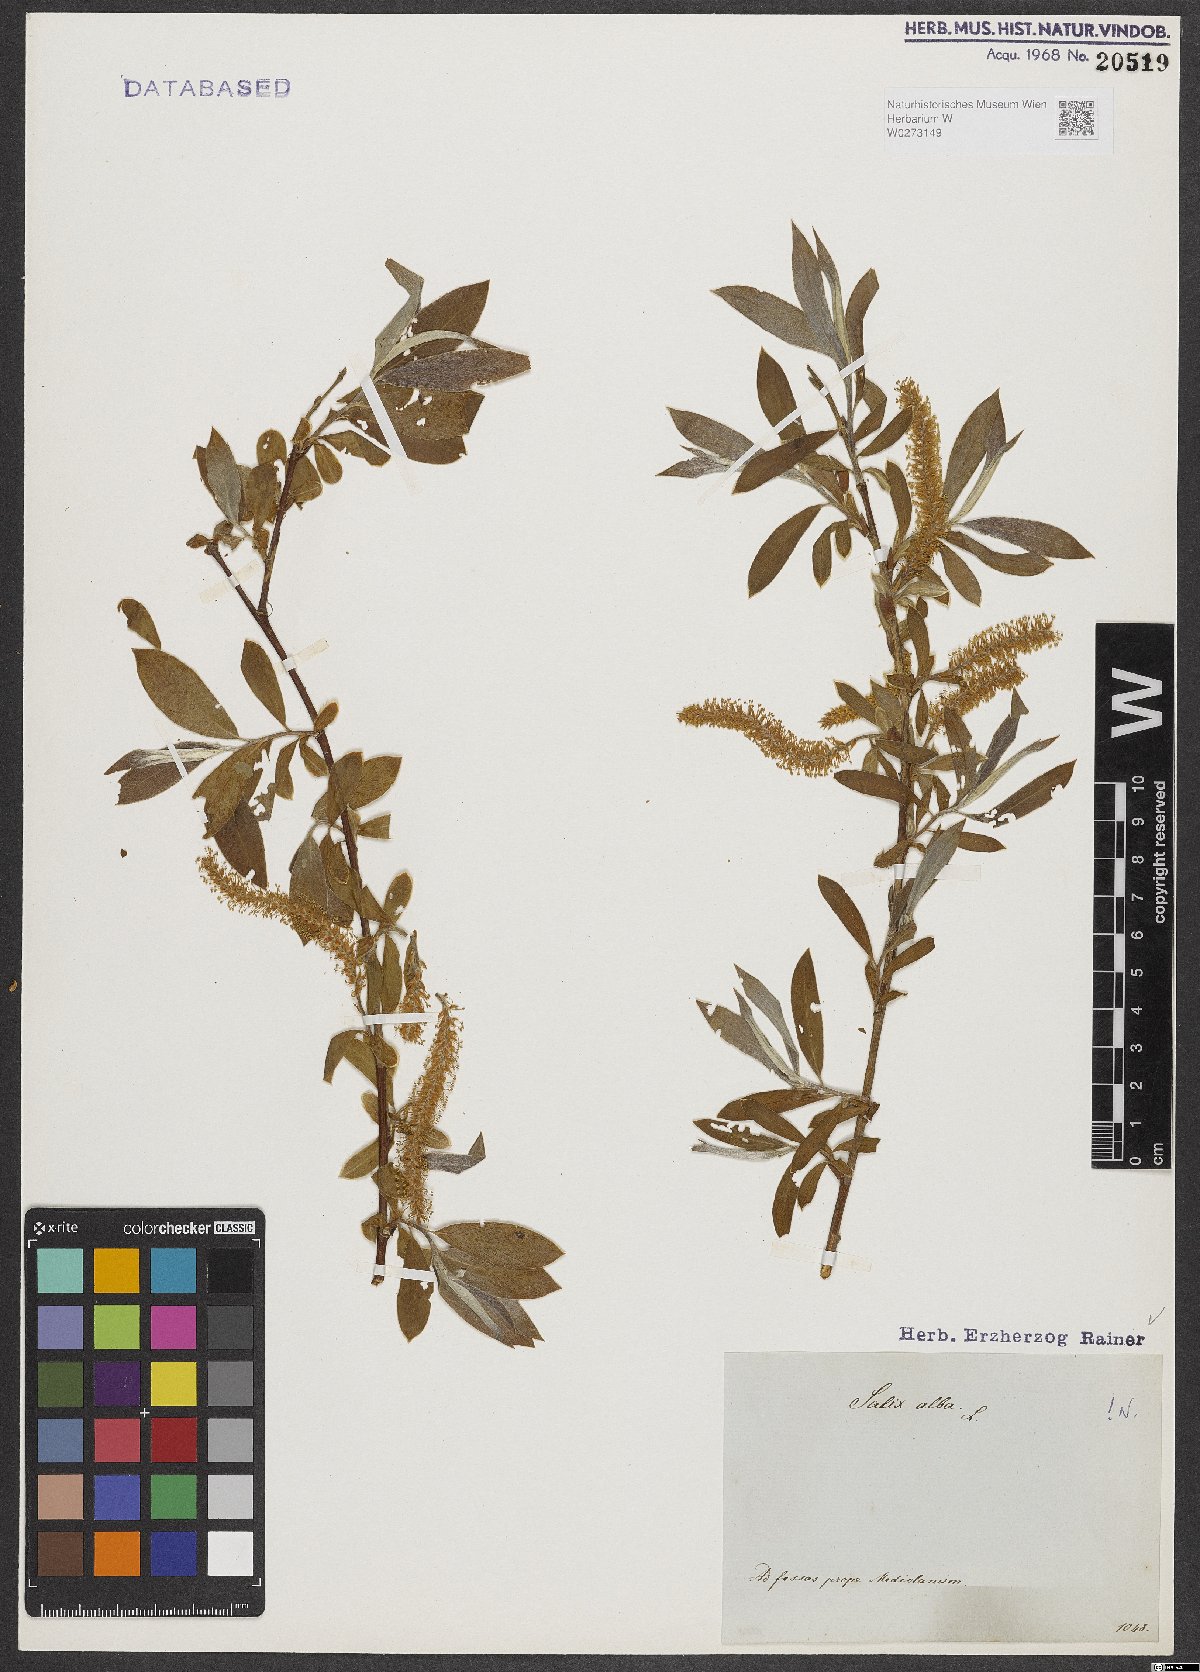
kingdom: Plantae
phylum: Tracheophyta
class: Magnoliopsida
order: Malpighiales
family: Salicaceae
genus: Salix
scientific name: Salix alba
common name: White willow
